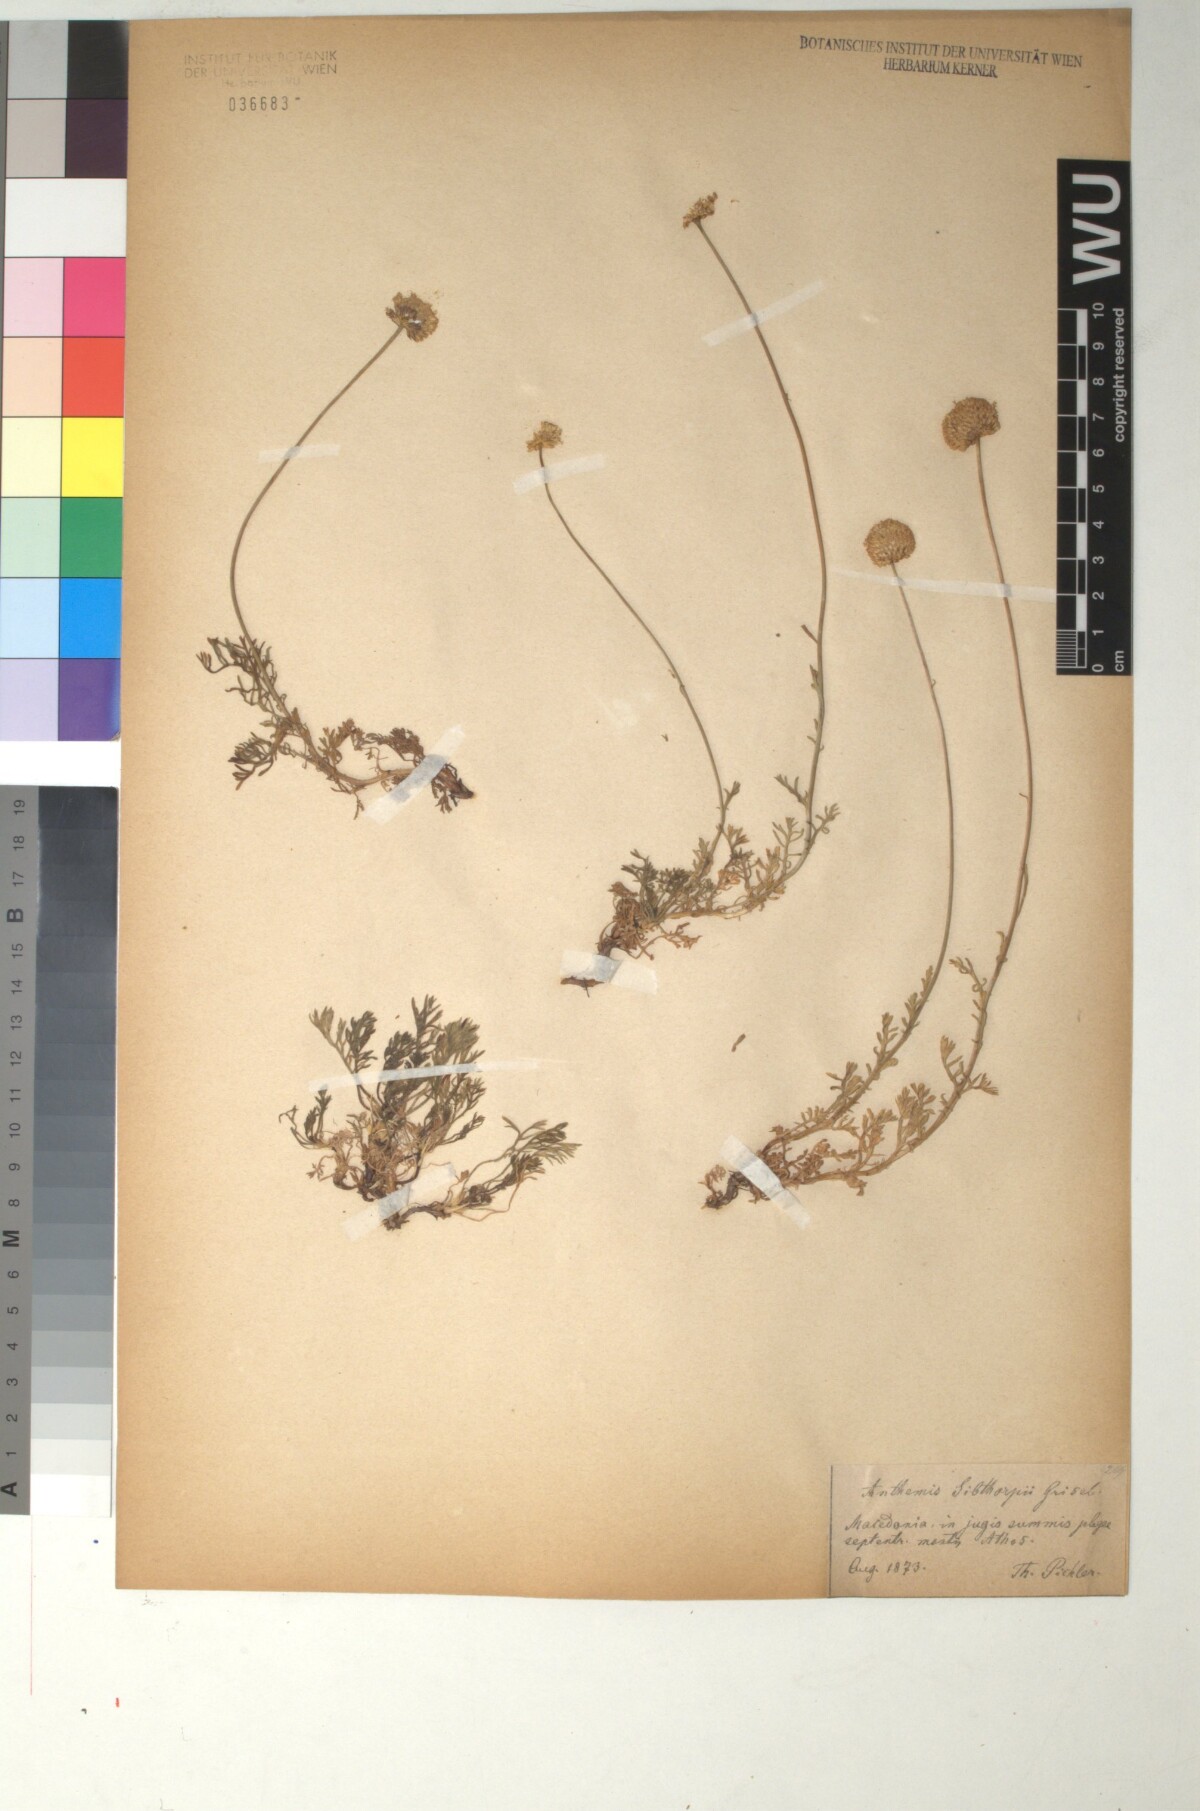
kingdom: Plantae
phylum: Tracheophyta
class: Magnoliopsida
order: Asterales
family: Asteraceae
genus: Anthemis
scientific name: Anthemis sibthorpii
